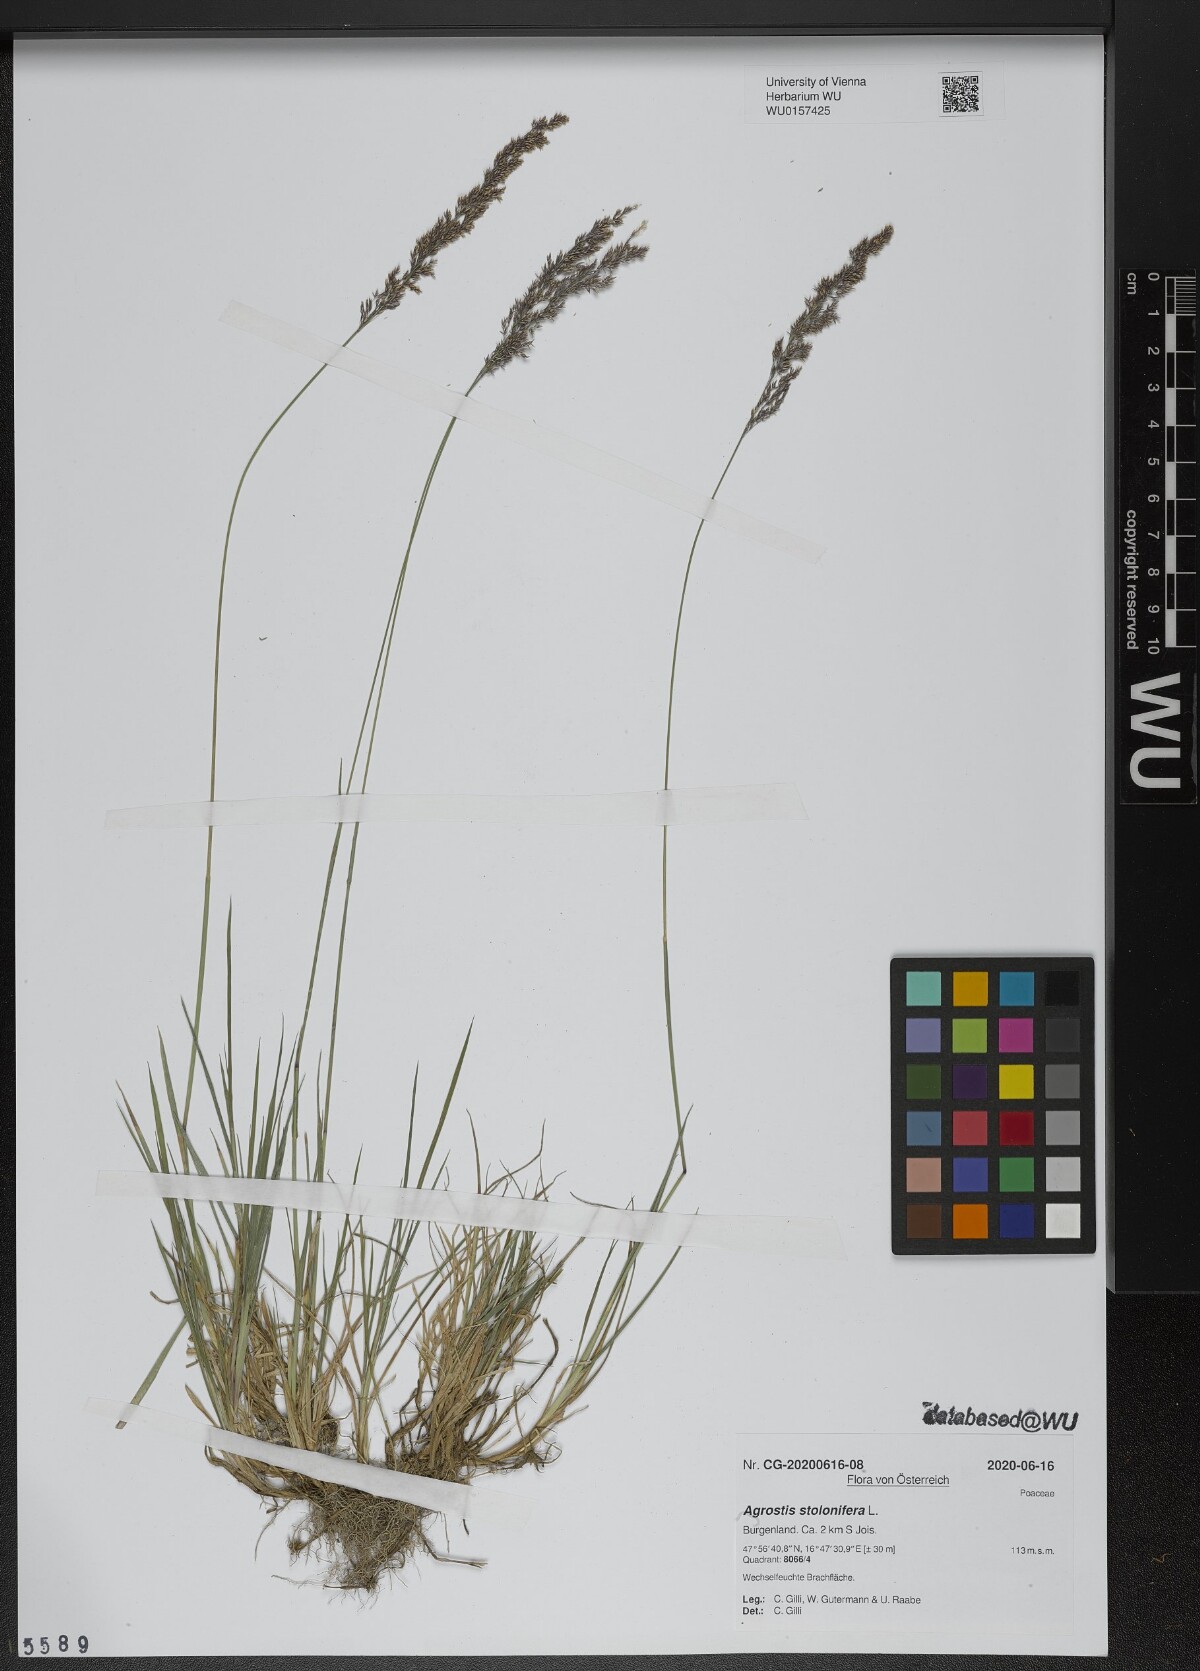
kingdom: Plantae
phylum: Tracheophyta
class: Liliopsida
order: Poales
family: Poaceae
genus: Agrostis
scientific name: Agrostis stolonifera
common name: Creeping bentgrass
